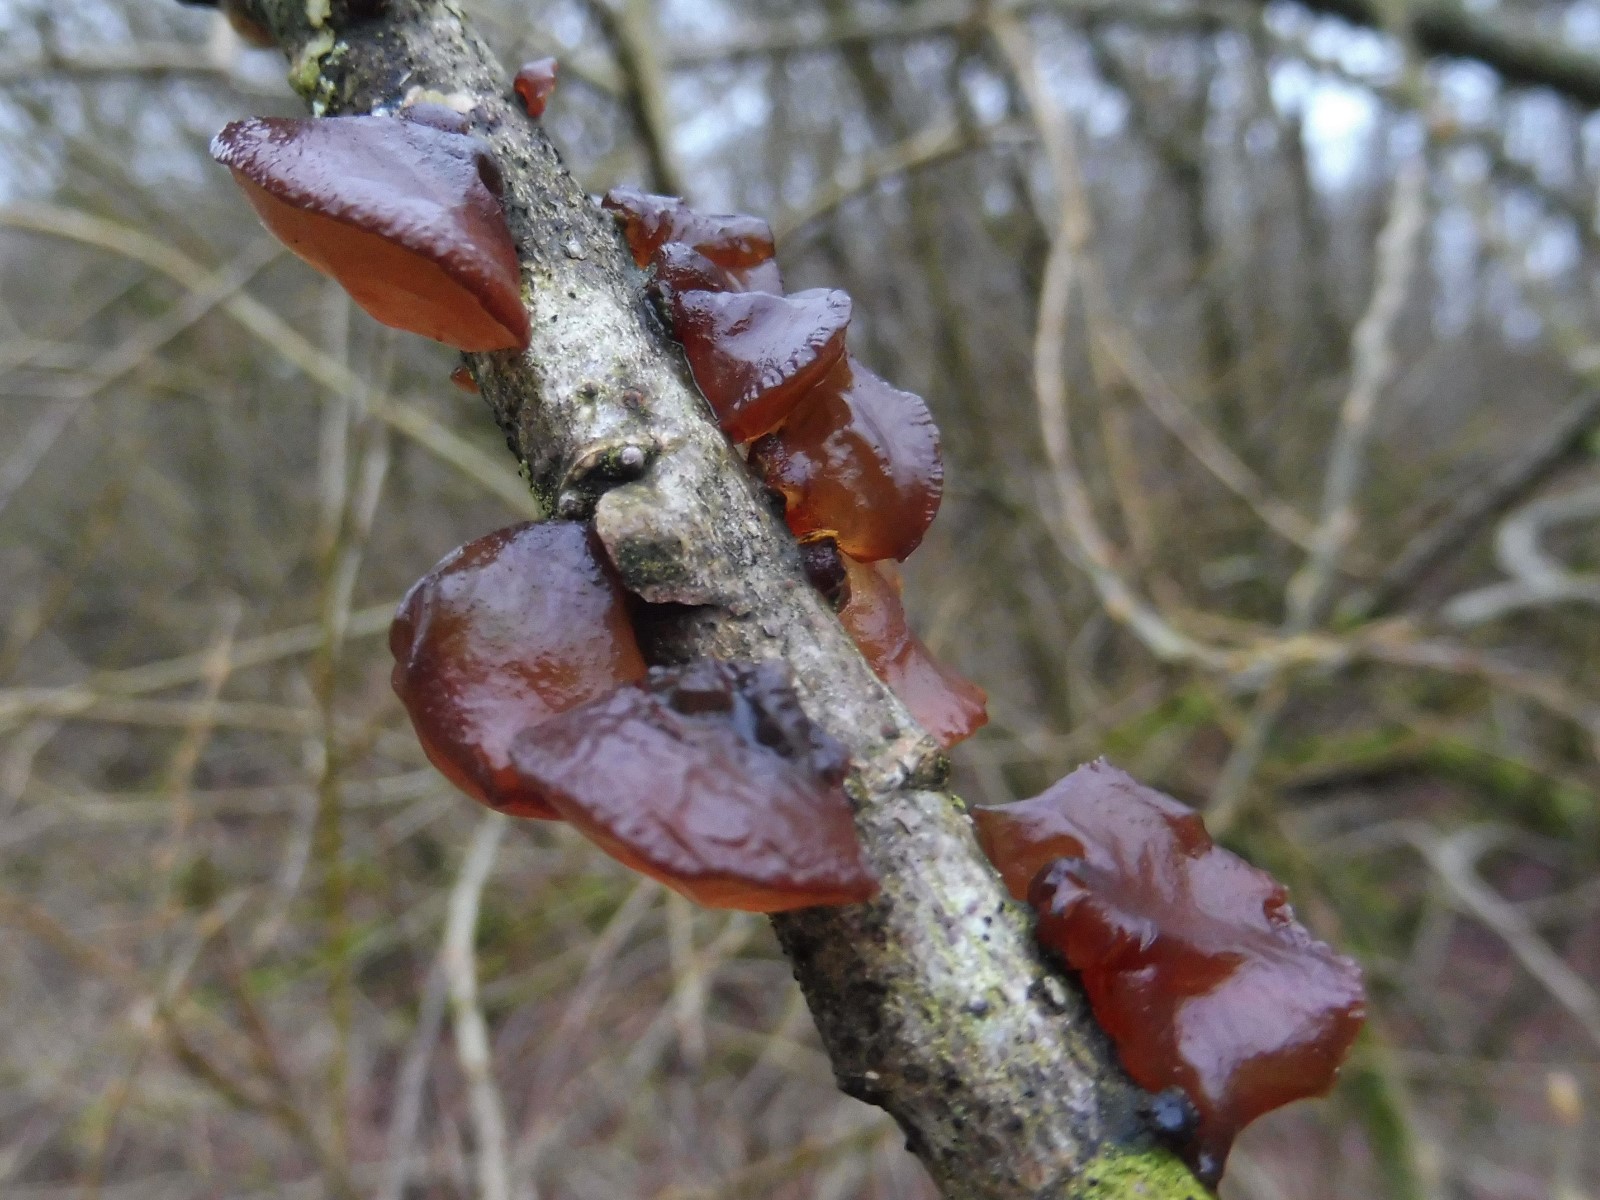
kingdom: Fungi
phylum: Basidiomycota
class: Agaricomycetes
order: Auriculariales
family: Auriculariaceae
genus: Exidia
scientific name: Exidia recisa
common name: pile-bævretop
